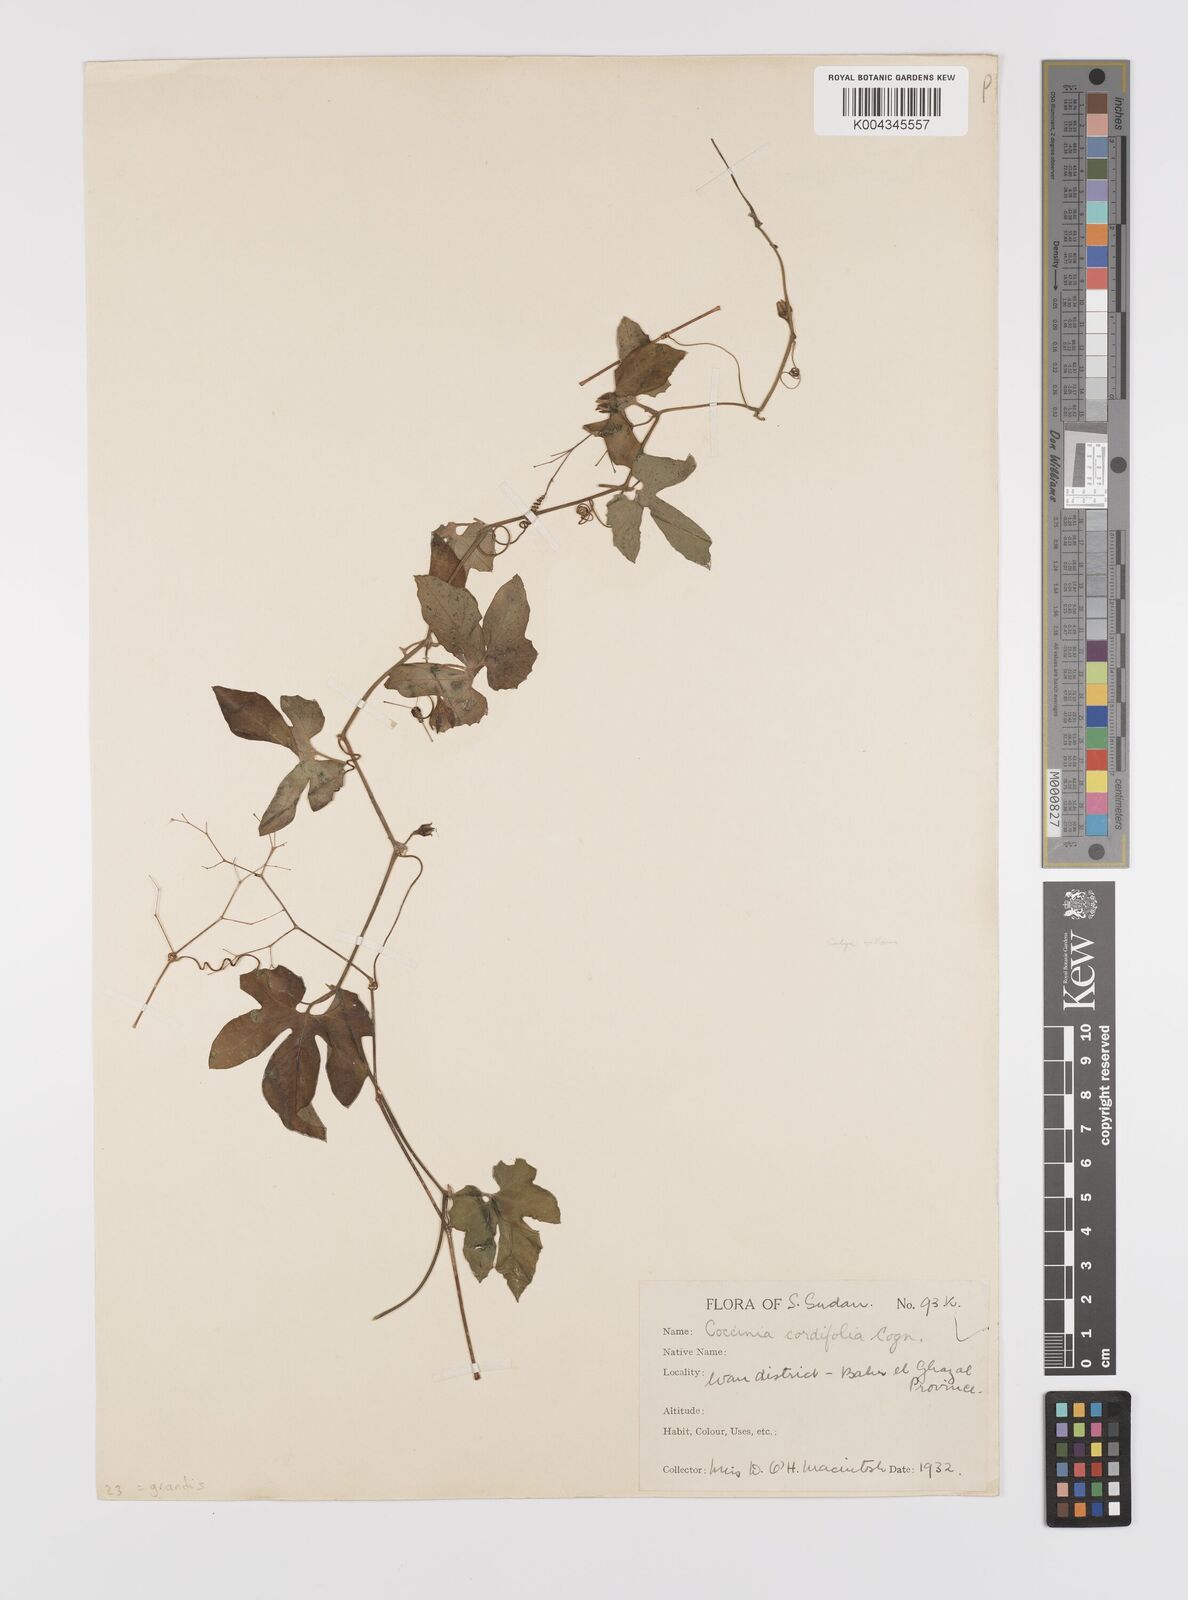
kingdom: Plantae
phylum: Tracheophyta
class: Magnoliopsida
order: Cucurbitales
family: Cucurbitaceae
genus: Coccinia
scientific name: Coccinia grandis
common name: Ivy gourd
